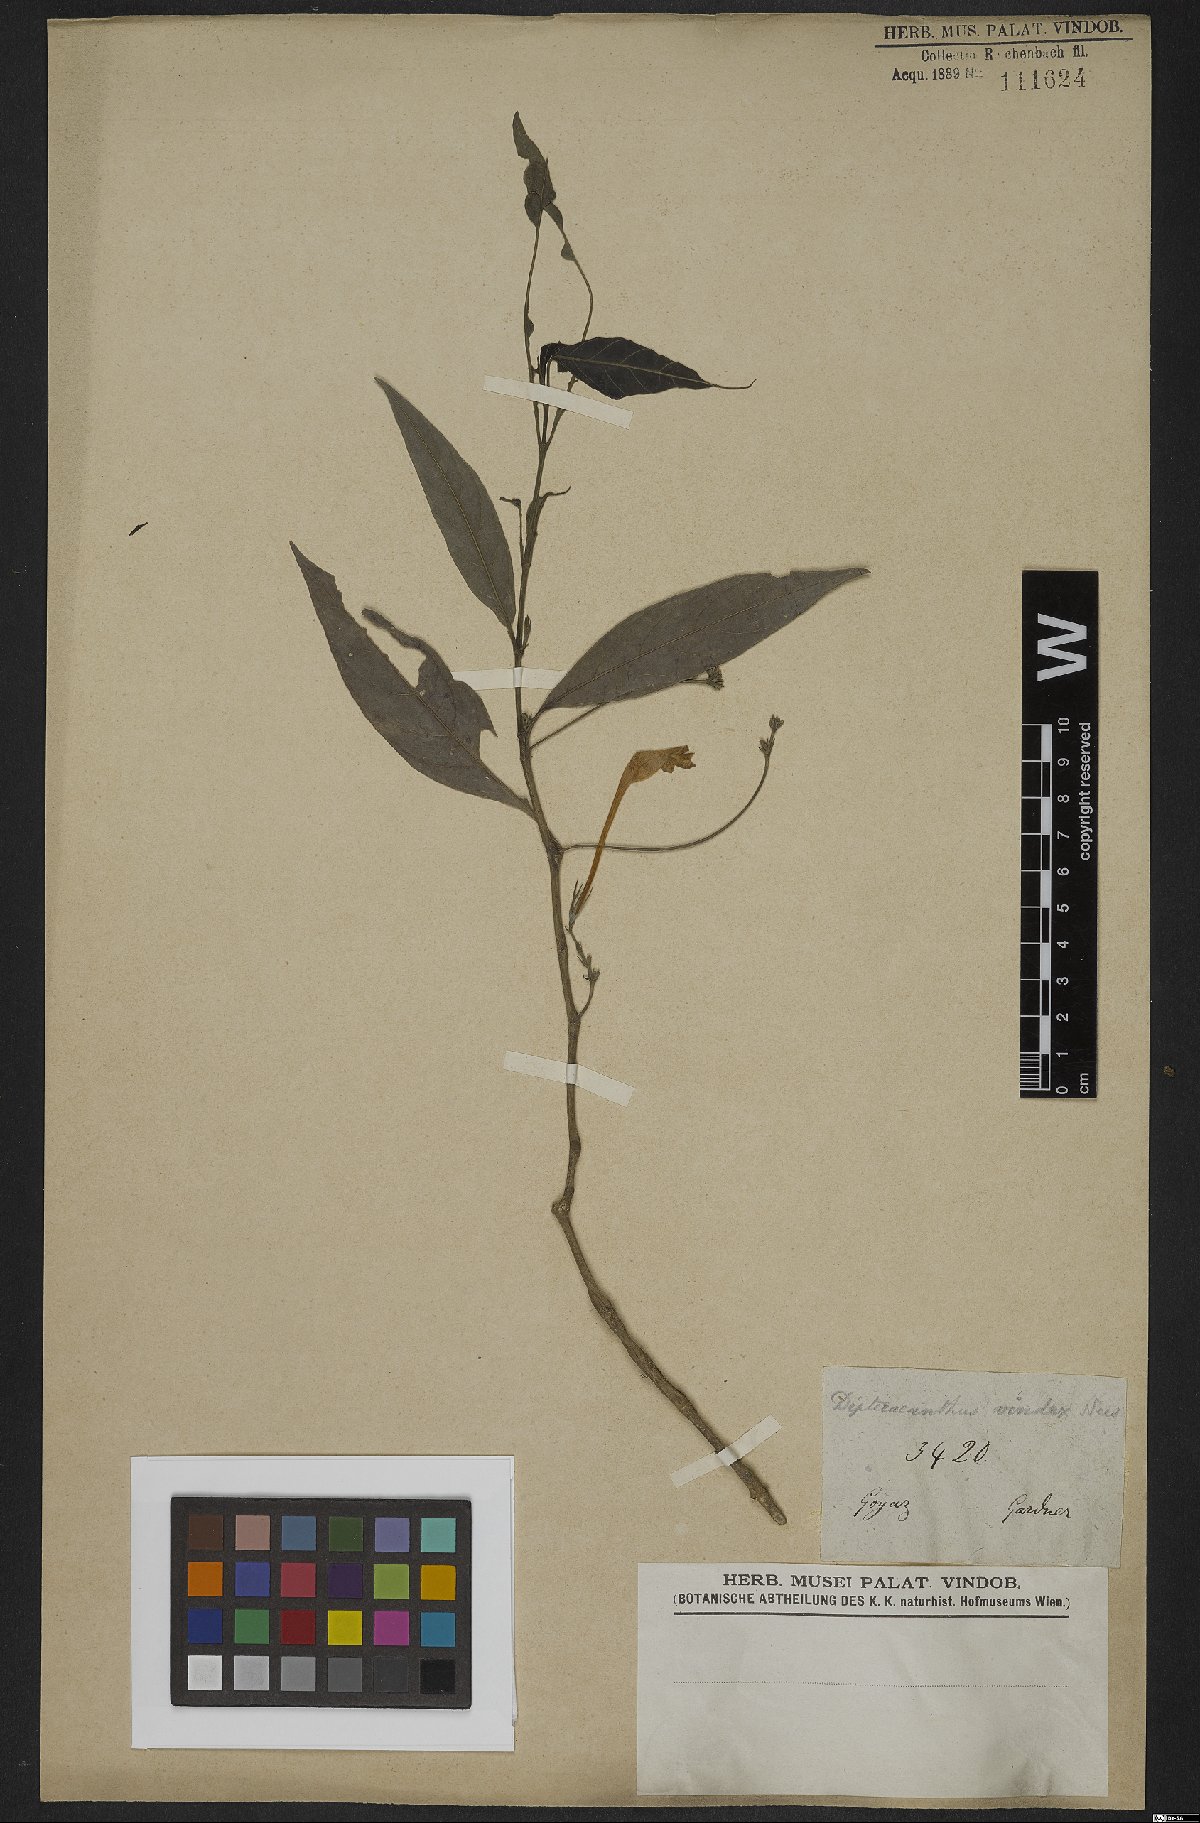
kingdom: Plantae
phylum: Tracheophyta
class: Magnoliopsida
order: Lamiales
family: Acanthaceae
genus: Ruellia
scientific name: Ruellia vindex
